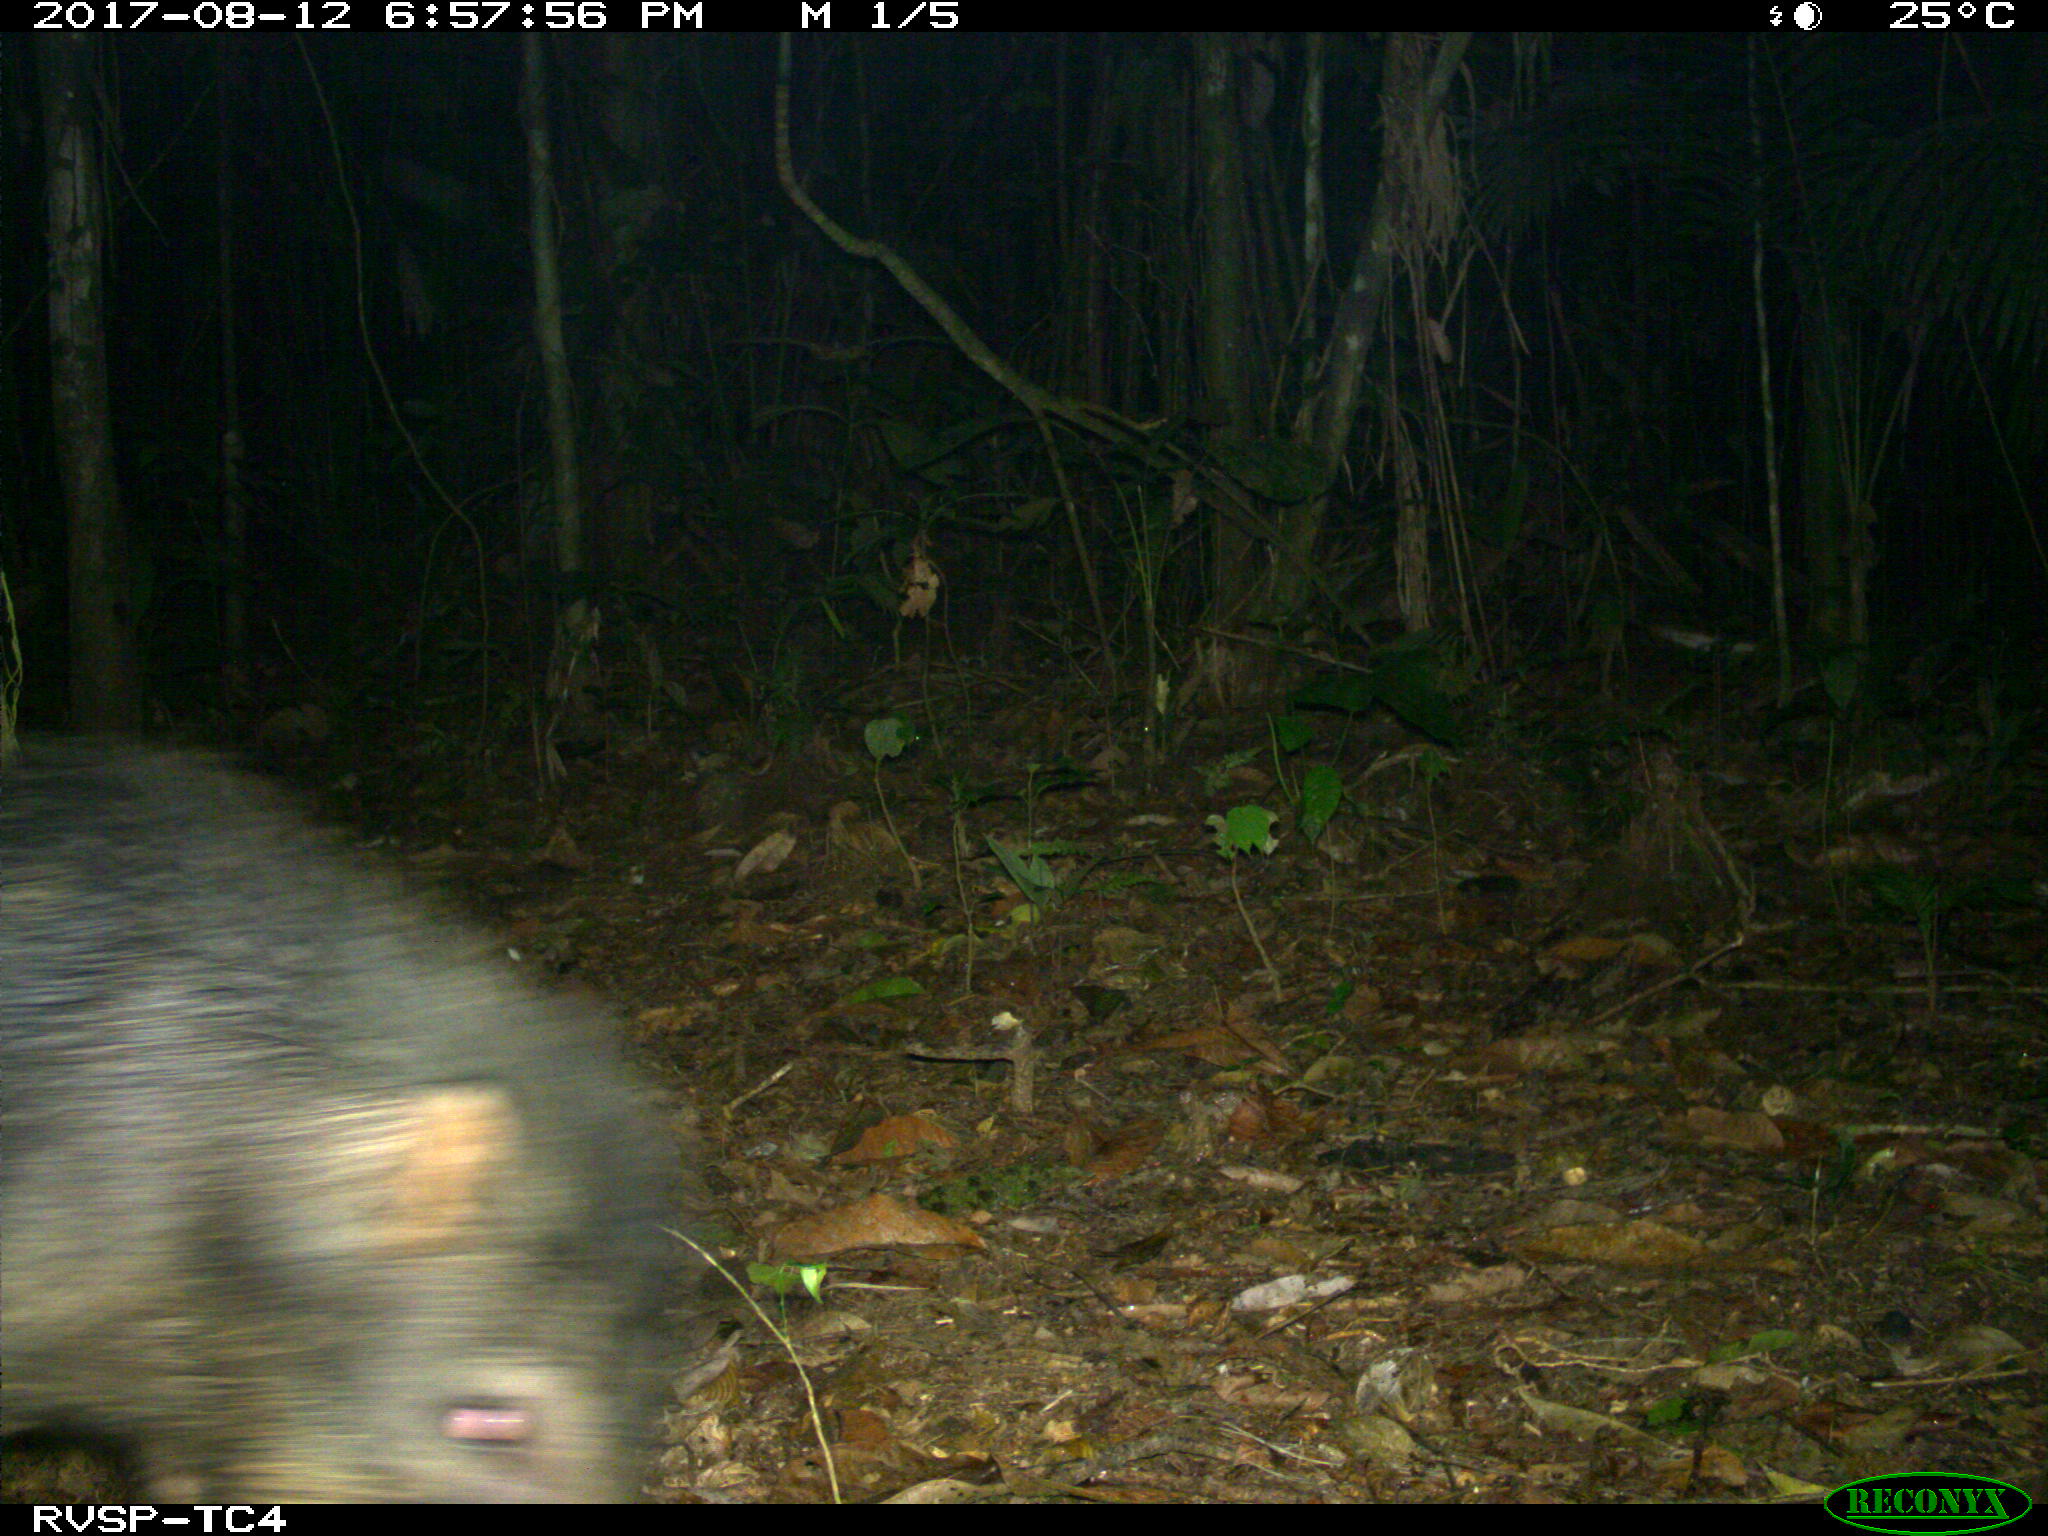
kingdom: Animalia
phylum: Chordata
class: Mammalia
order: Artiodactyla
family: Tayassuidae
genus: Tayassu
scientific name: Tayassu pecari
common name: White-lipped peccary
